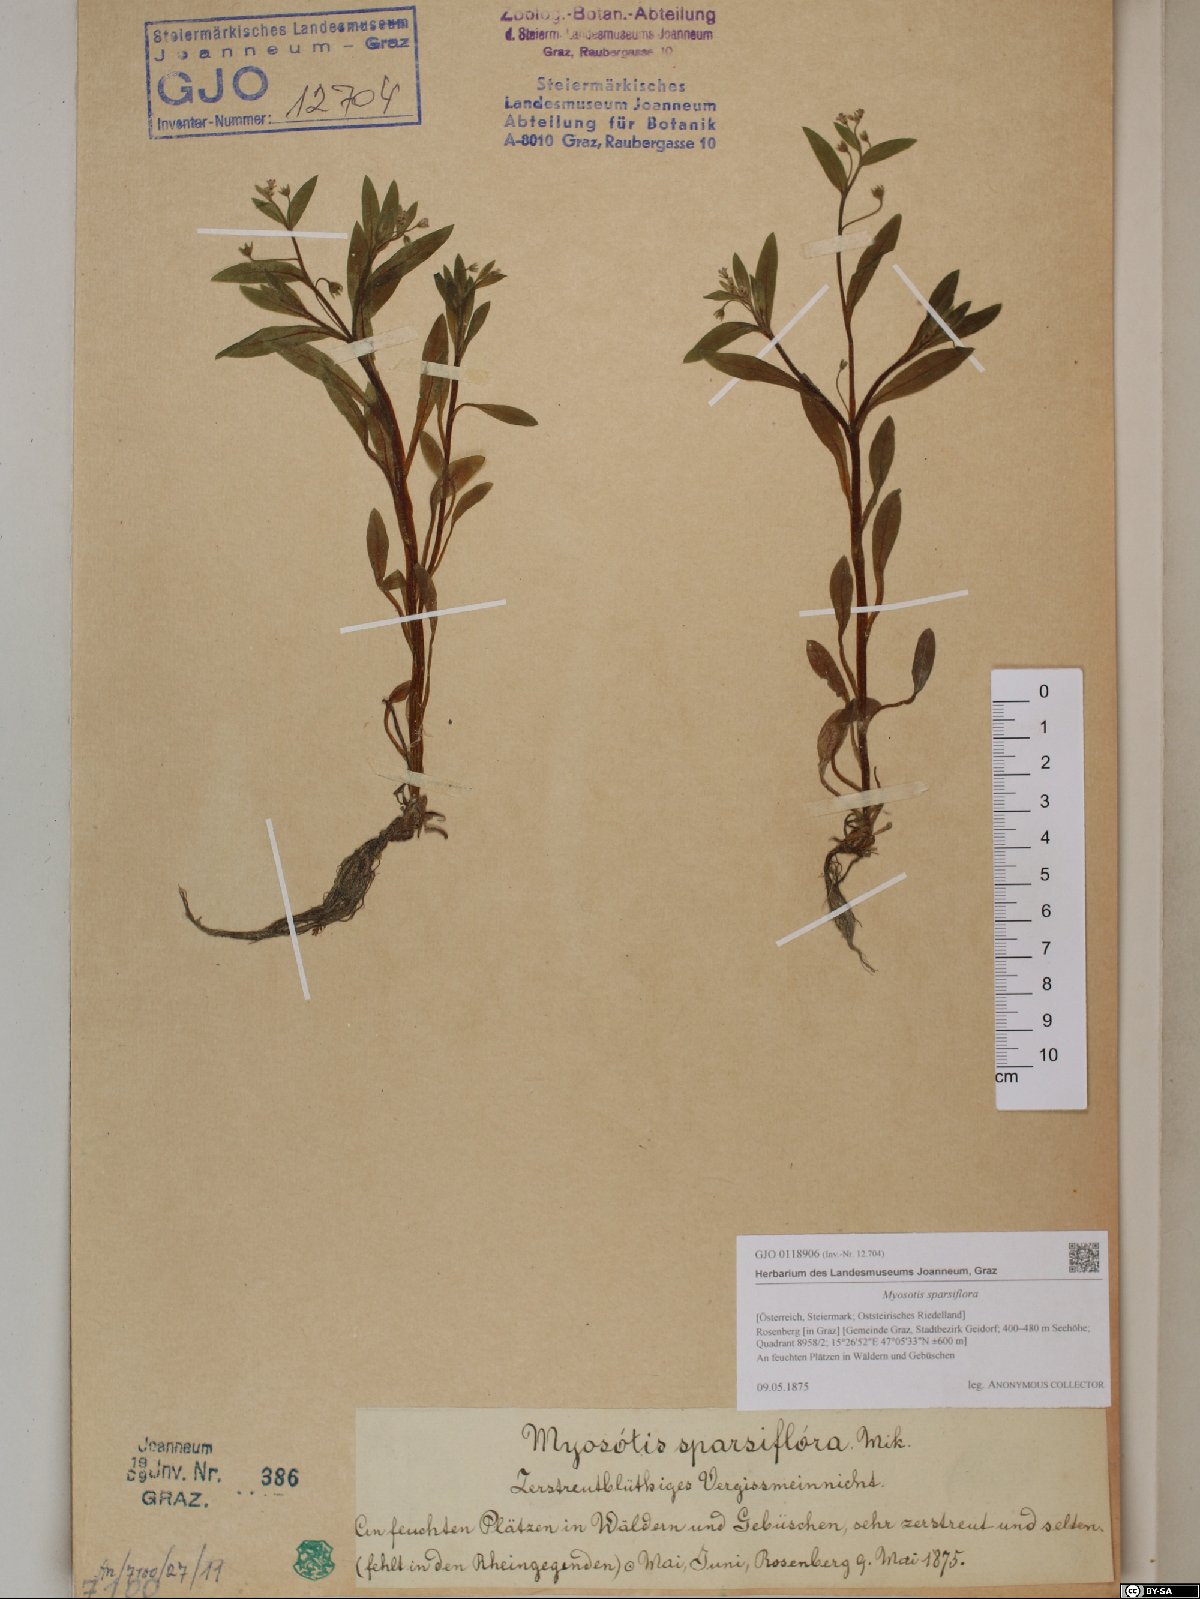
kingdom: Plantae
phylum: Tracheophyta
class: Magnoliopsida
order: Boraginales
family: Boraginaceae
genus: Myosotis
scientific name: Myosotis sparsiflora
